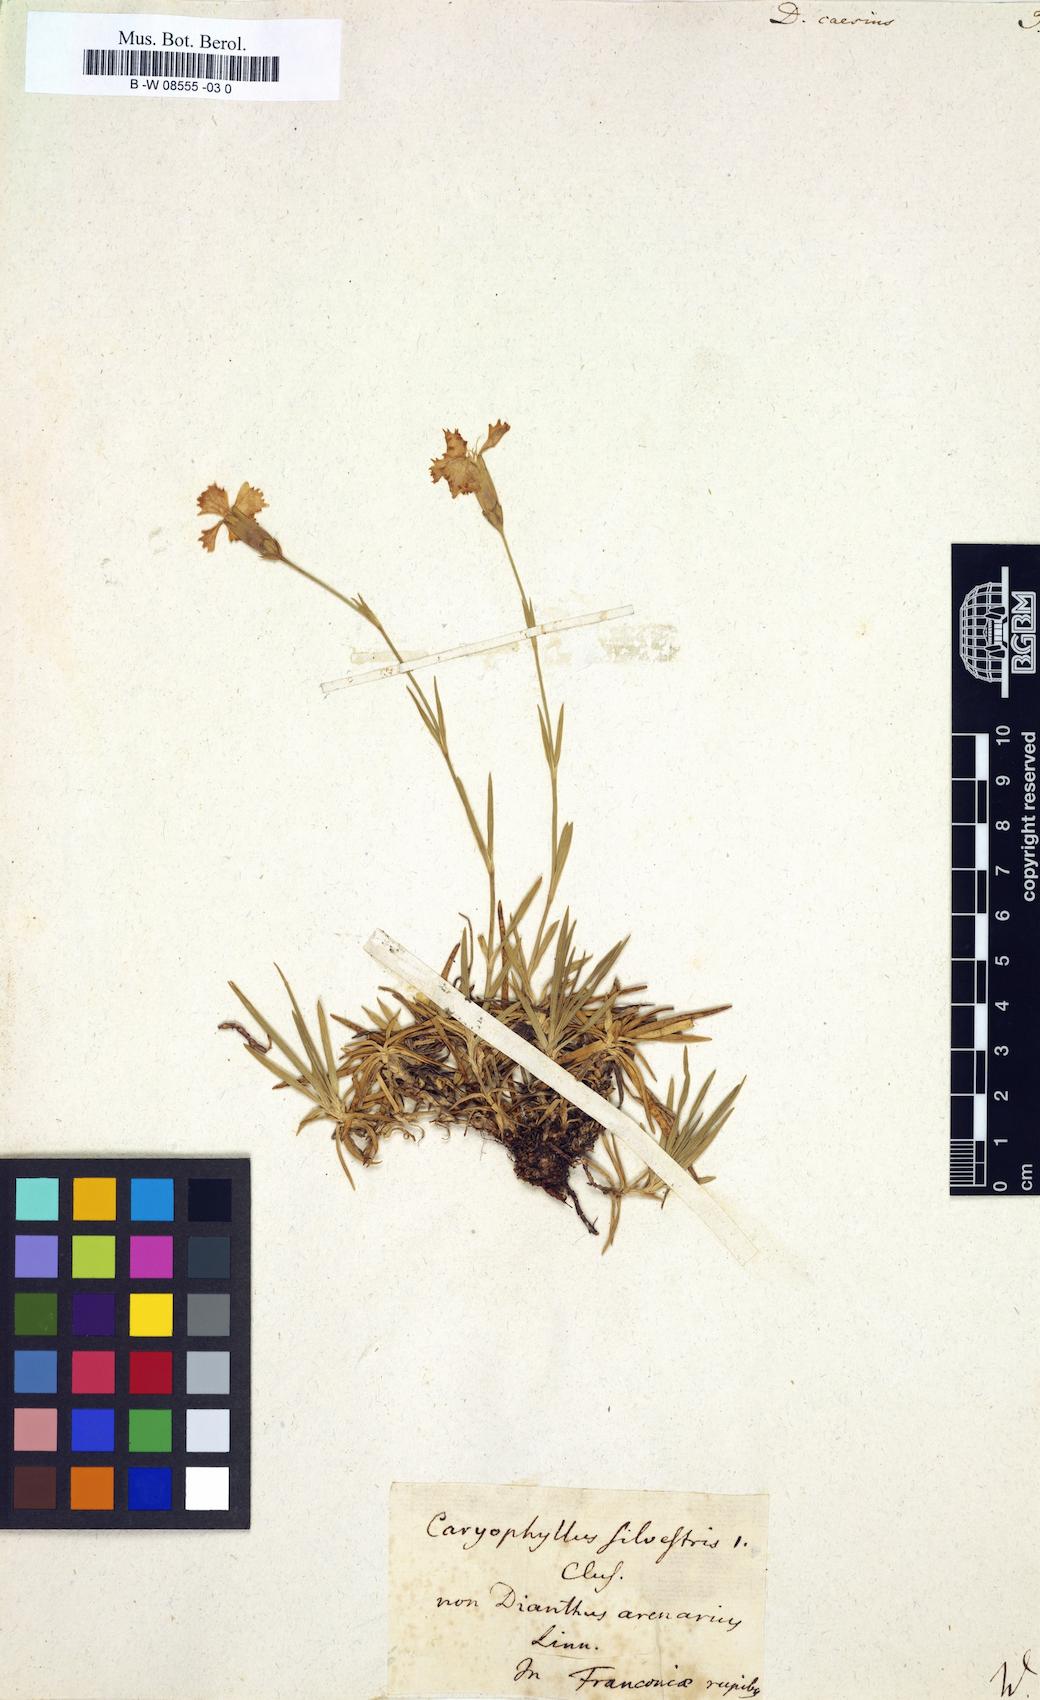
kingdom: Plantae
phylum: Tracheophyta
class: Magnoliopsida
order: Caryophyllales
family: Caryophyllaceae
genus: Dianthus
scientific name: Dianthus caesius
